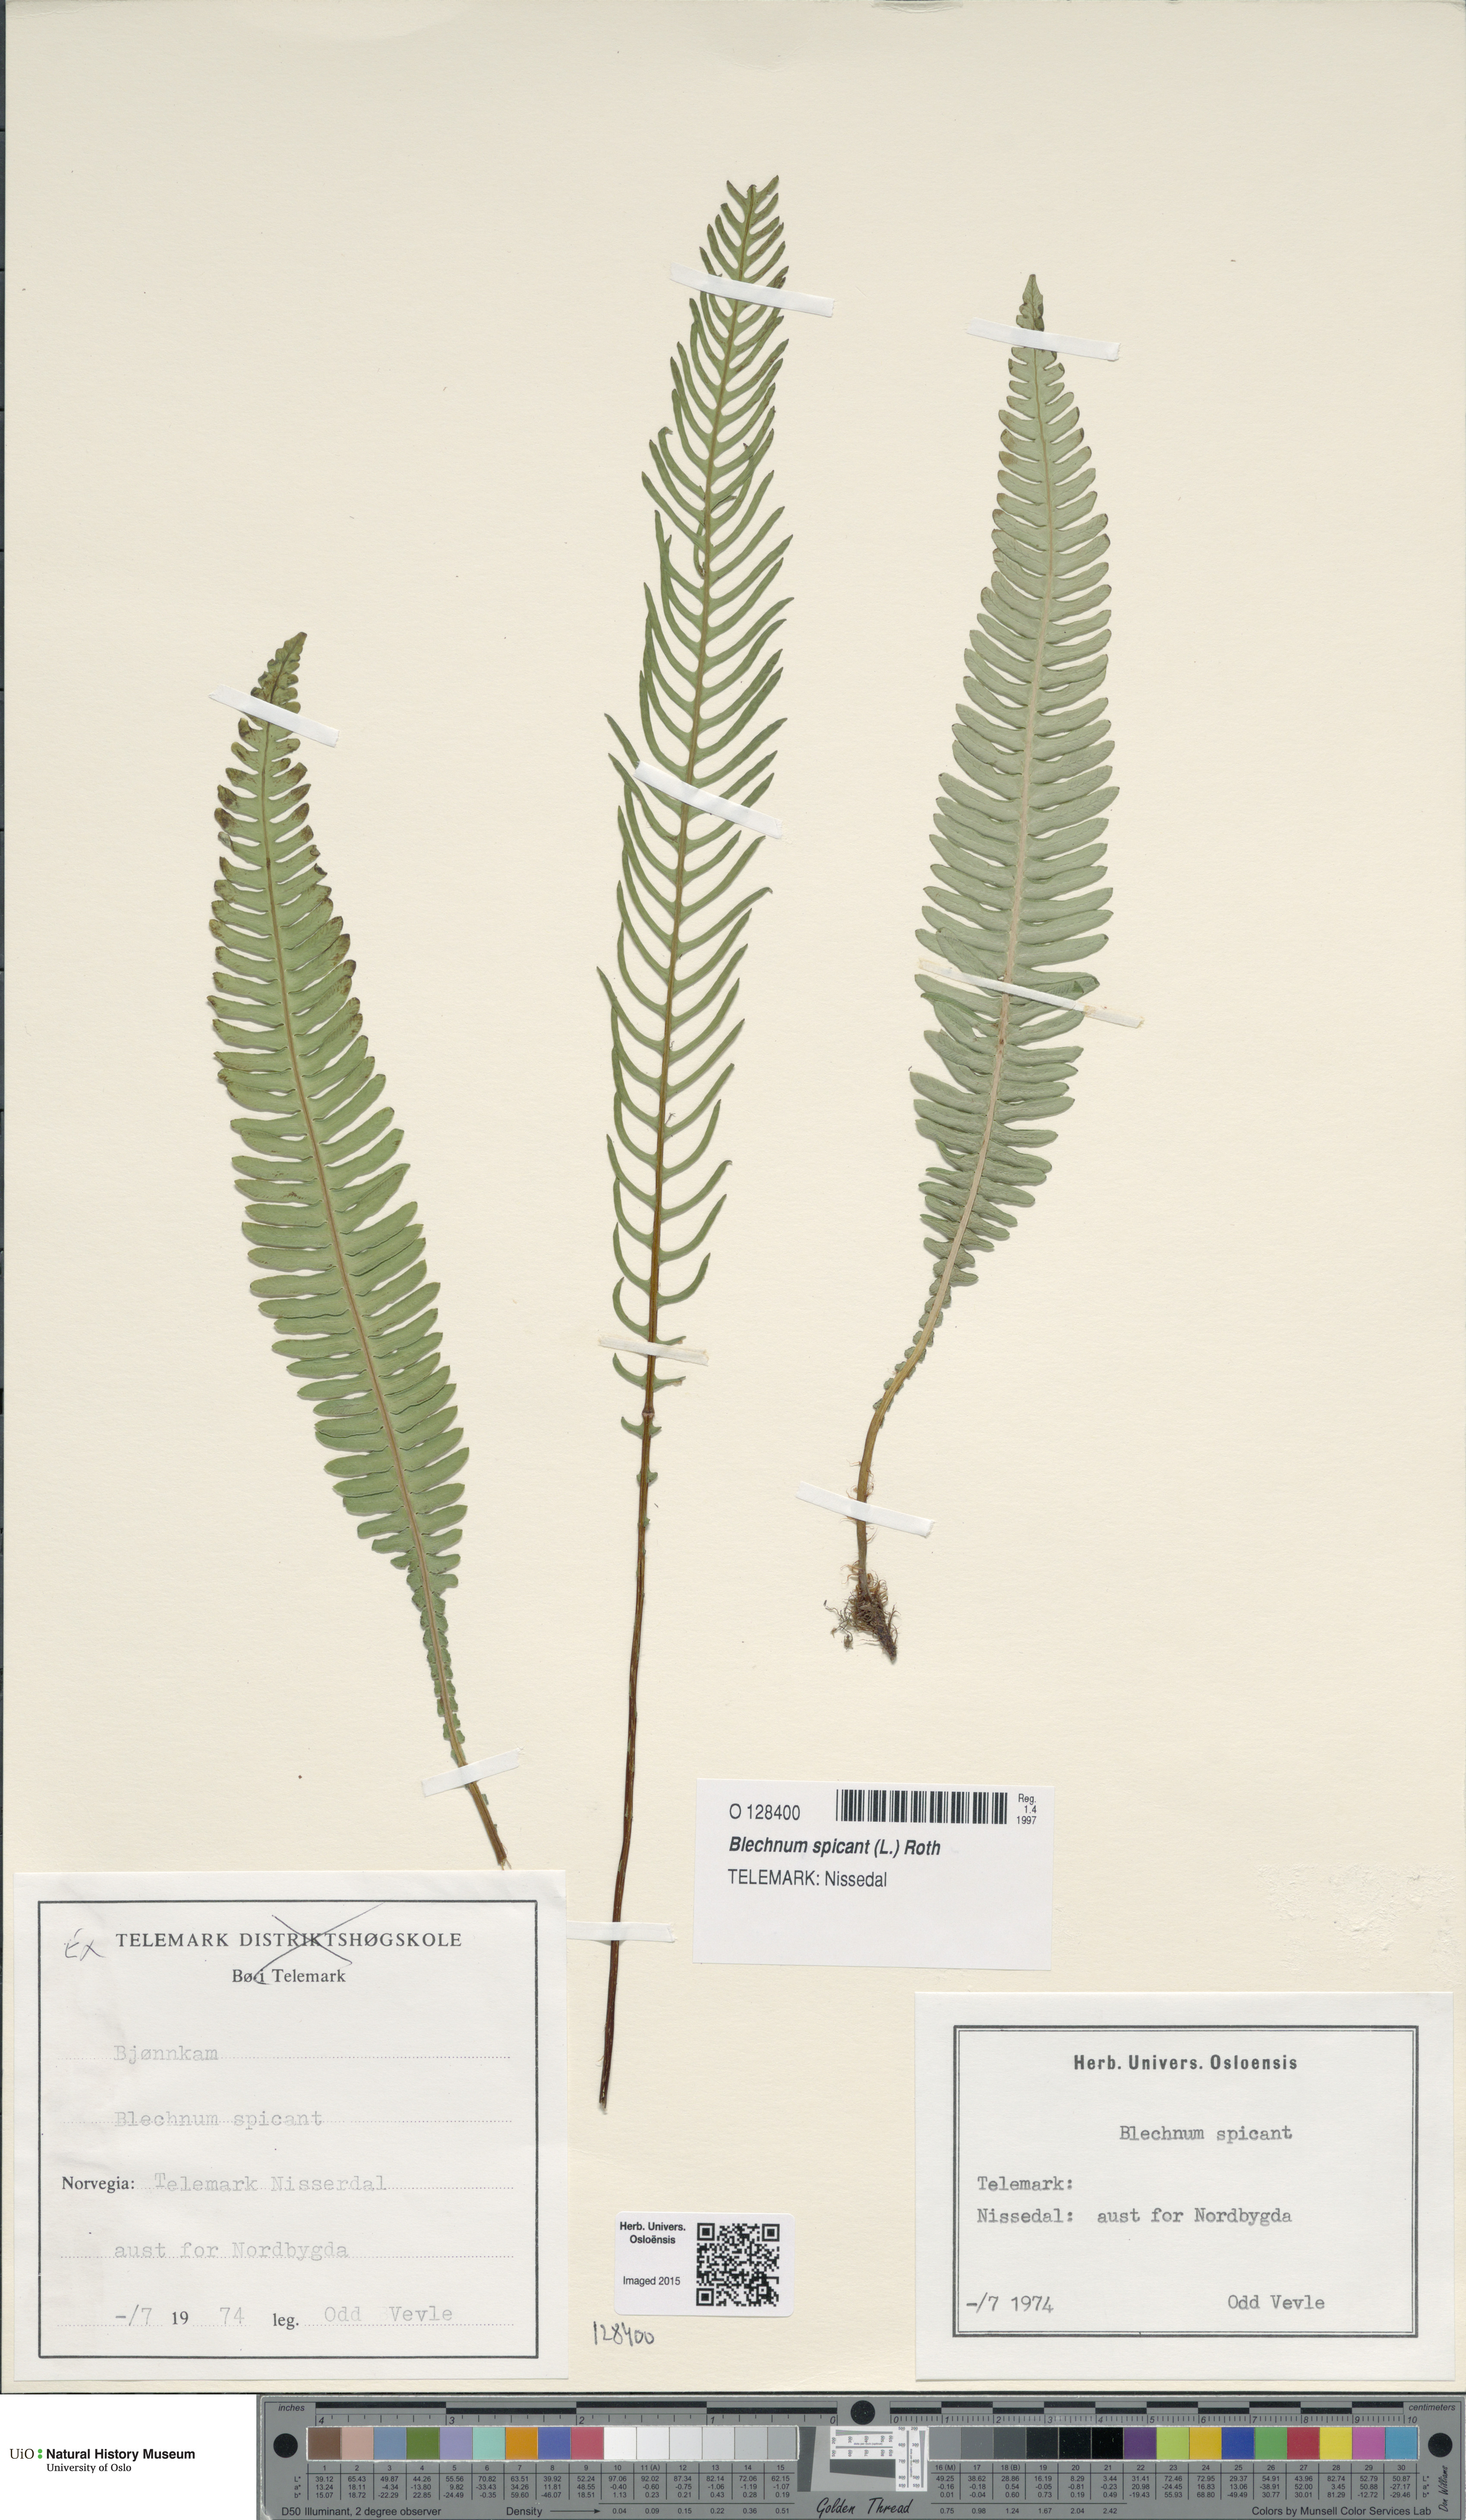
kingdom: Plantae
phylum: Tracheophyta
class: Polypodiopsida
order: Polypodiales
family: Blechnaceae
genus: Struthiopteris
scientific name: Struthiopteris spicant
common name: Deer fern
